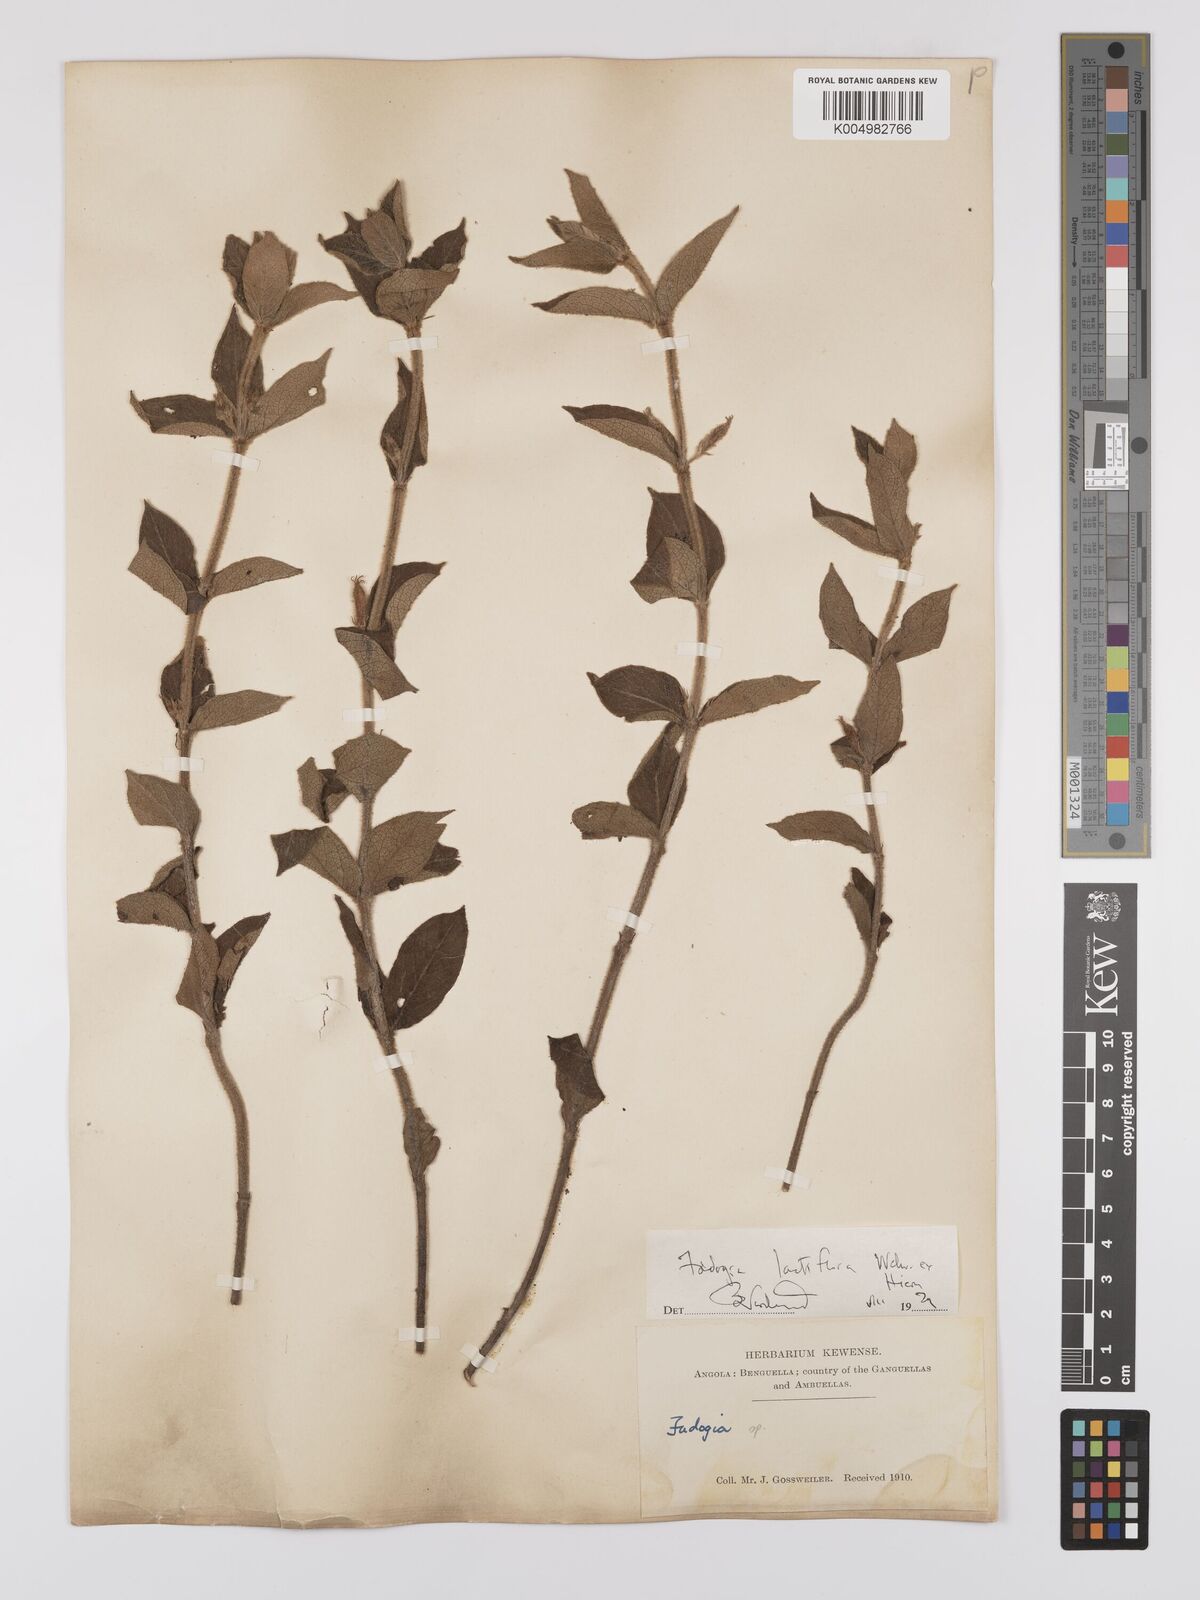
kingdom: Plantae
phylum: Tracheophyta
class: Magnoliopsida
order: Gentianales
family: Rubiaceae
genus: Fadogia
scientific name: Fadogia lactiflora
